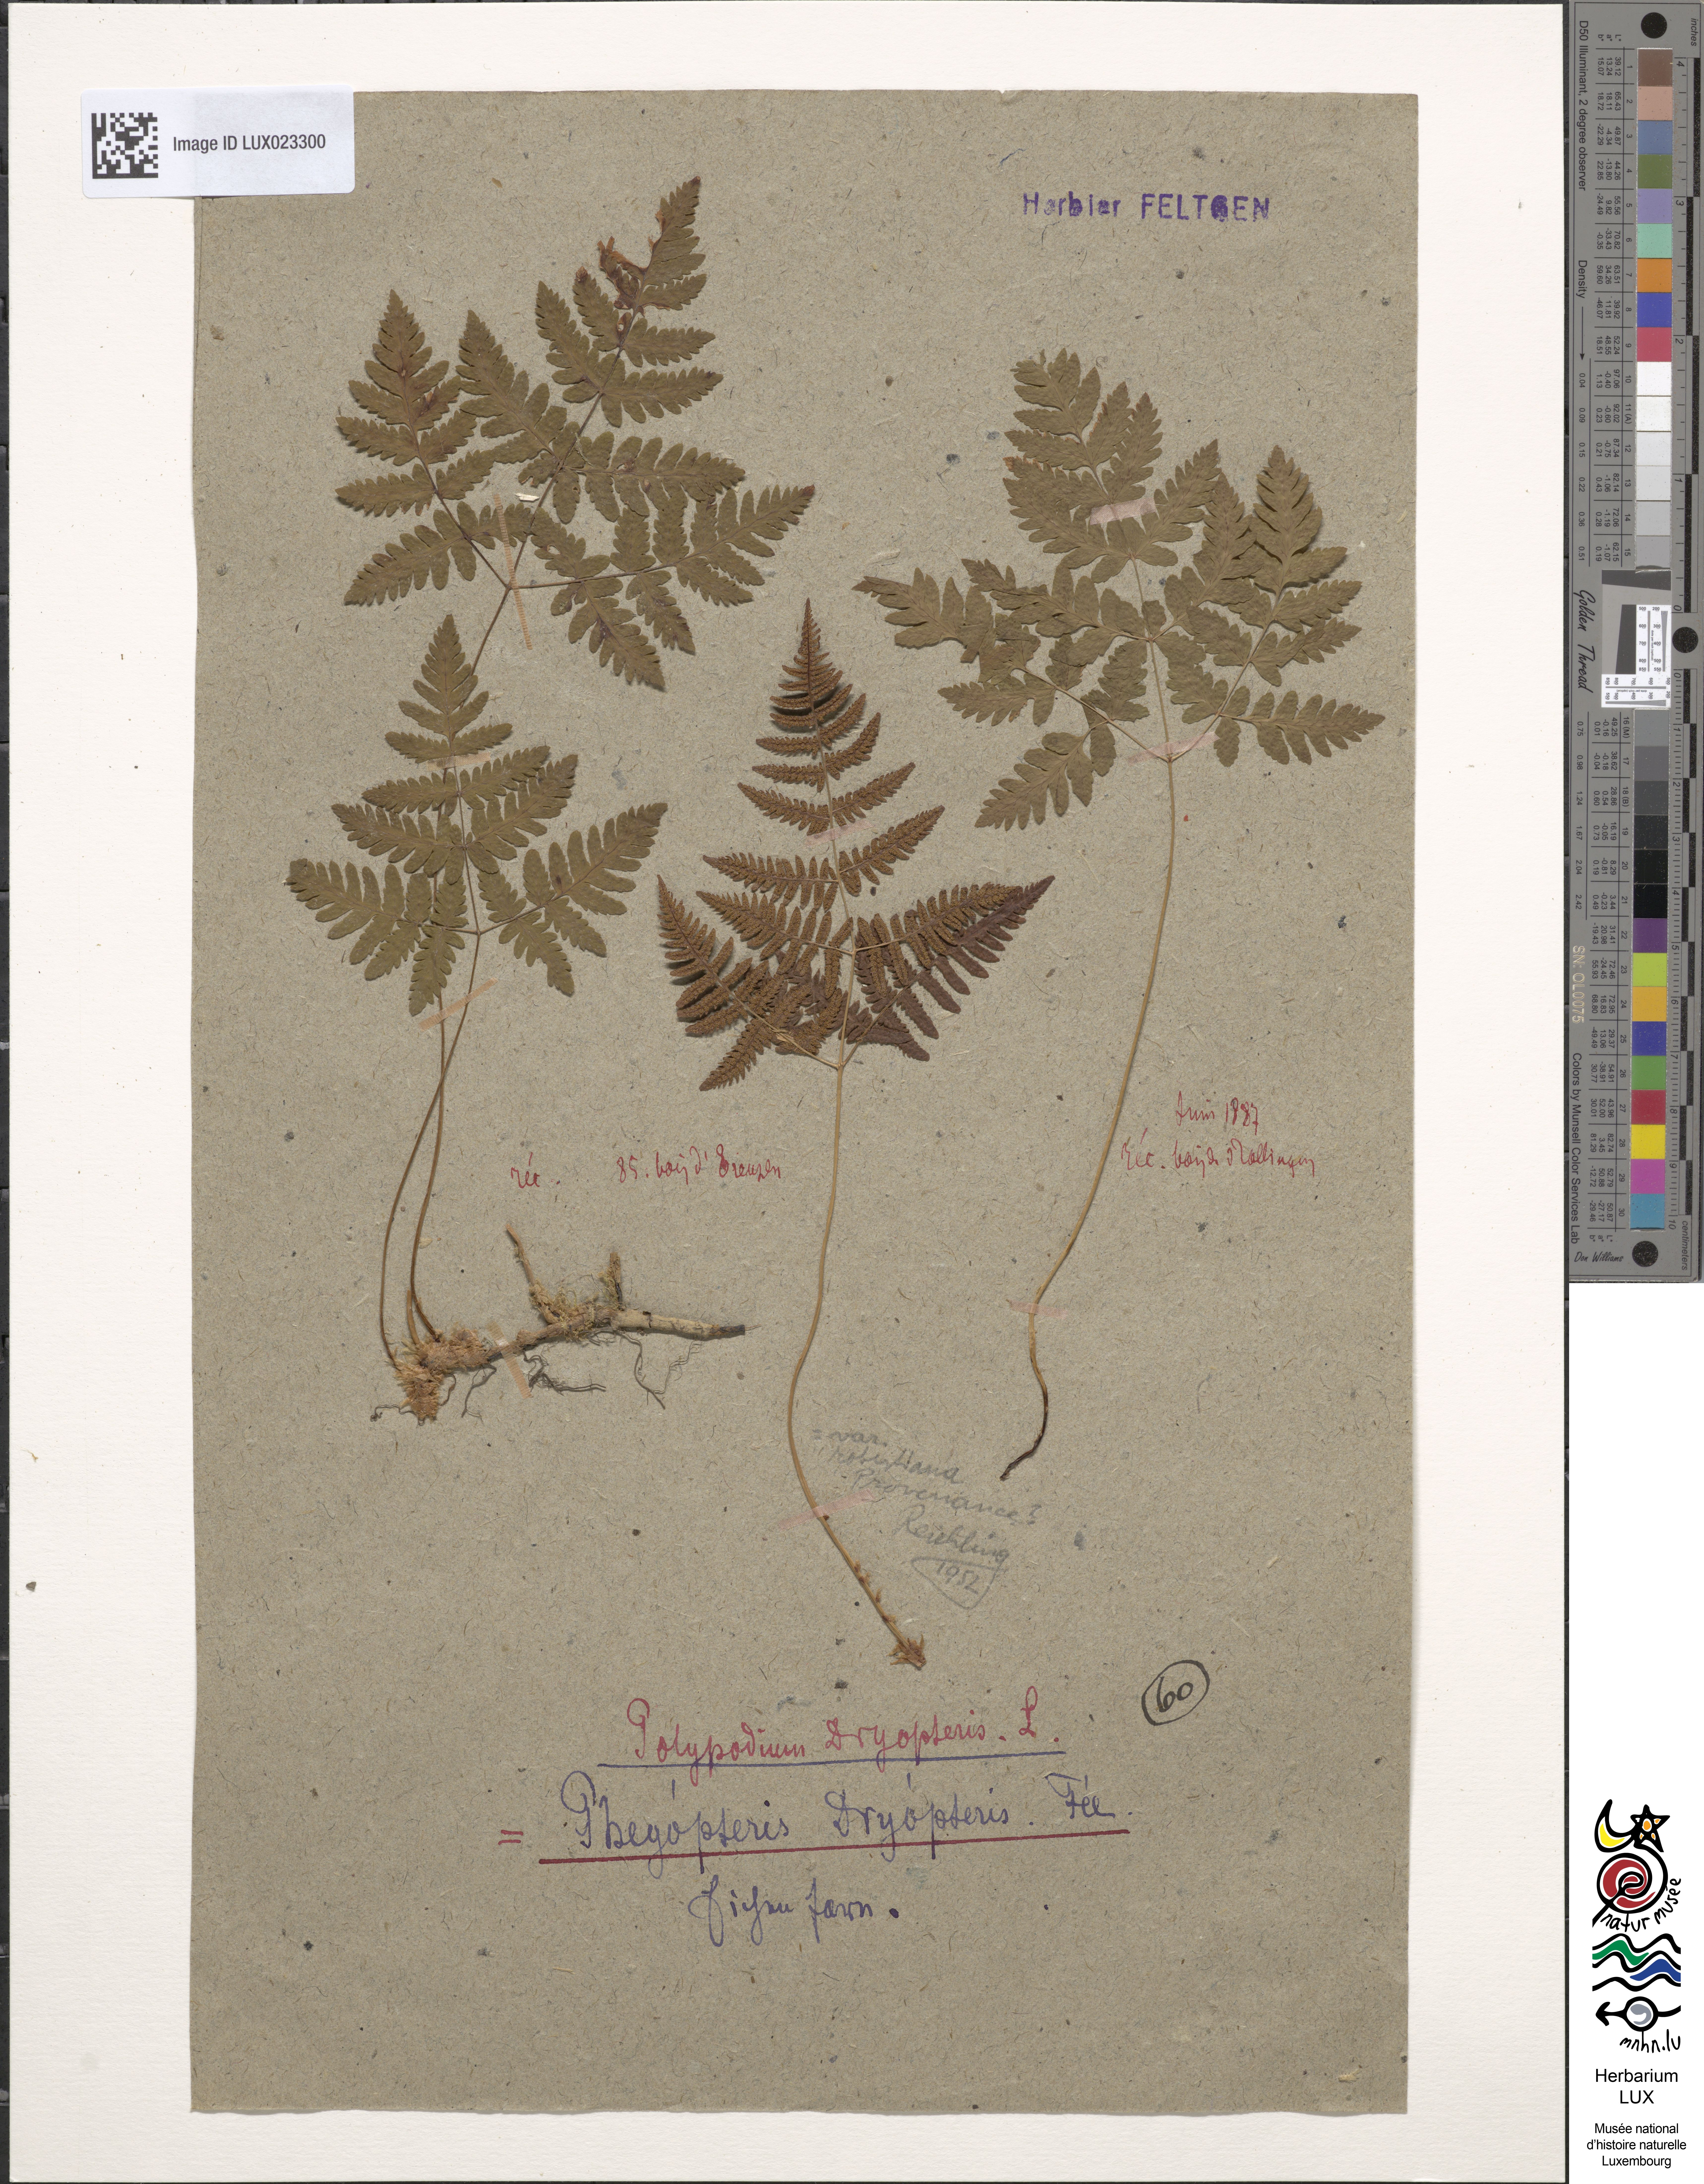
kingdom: Plantae
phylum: Tracheophyta
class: Polypodiopsida
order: Polypodiales
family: Cystopteridaceae
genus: Gymnocarpium
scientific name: Gymnocarpium dryopteris
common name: Oak fern
